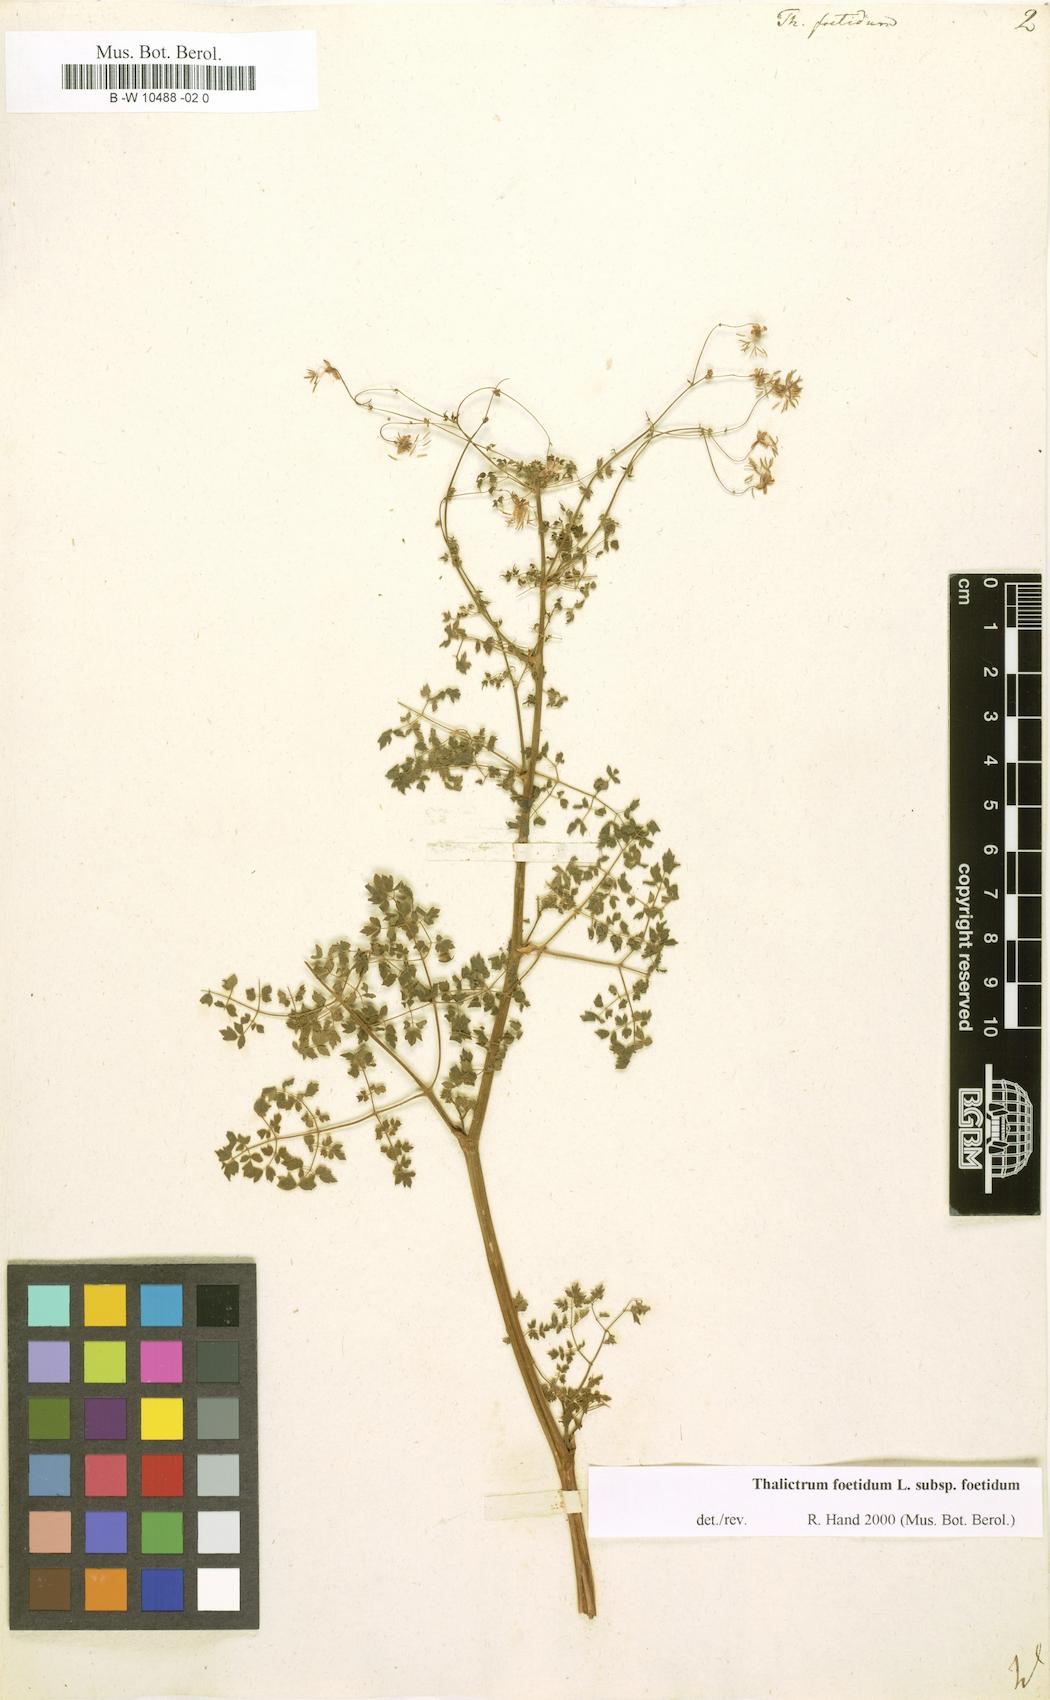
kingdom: Plantae
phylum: Tracheophyta
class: Magnoliopsida
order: Ranunculales
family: Ranunculaceae
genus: Thalictrum
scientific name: Thalictrum foetidum
